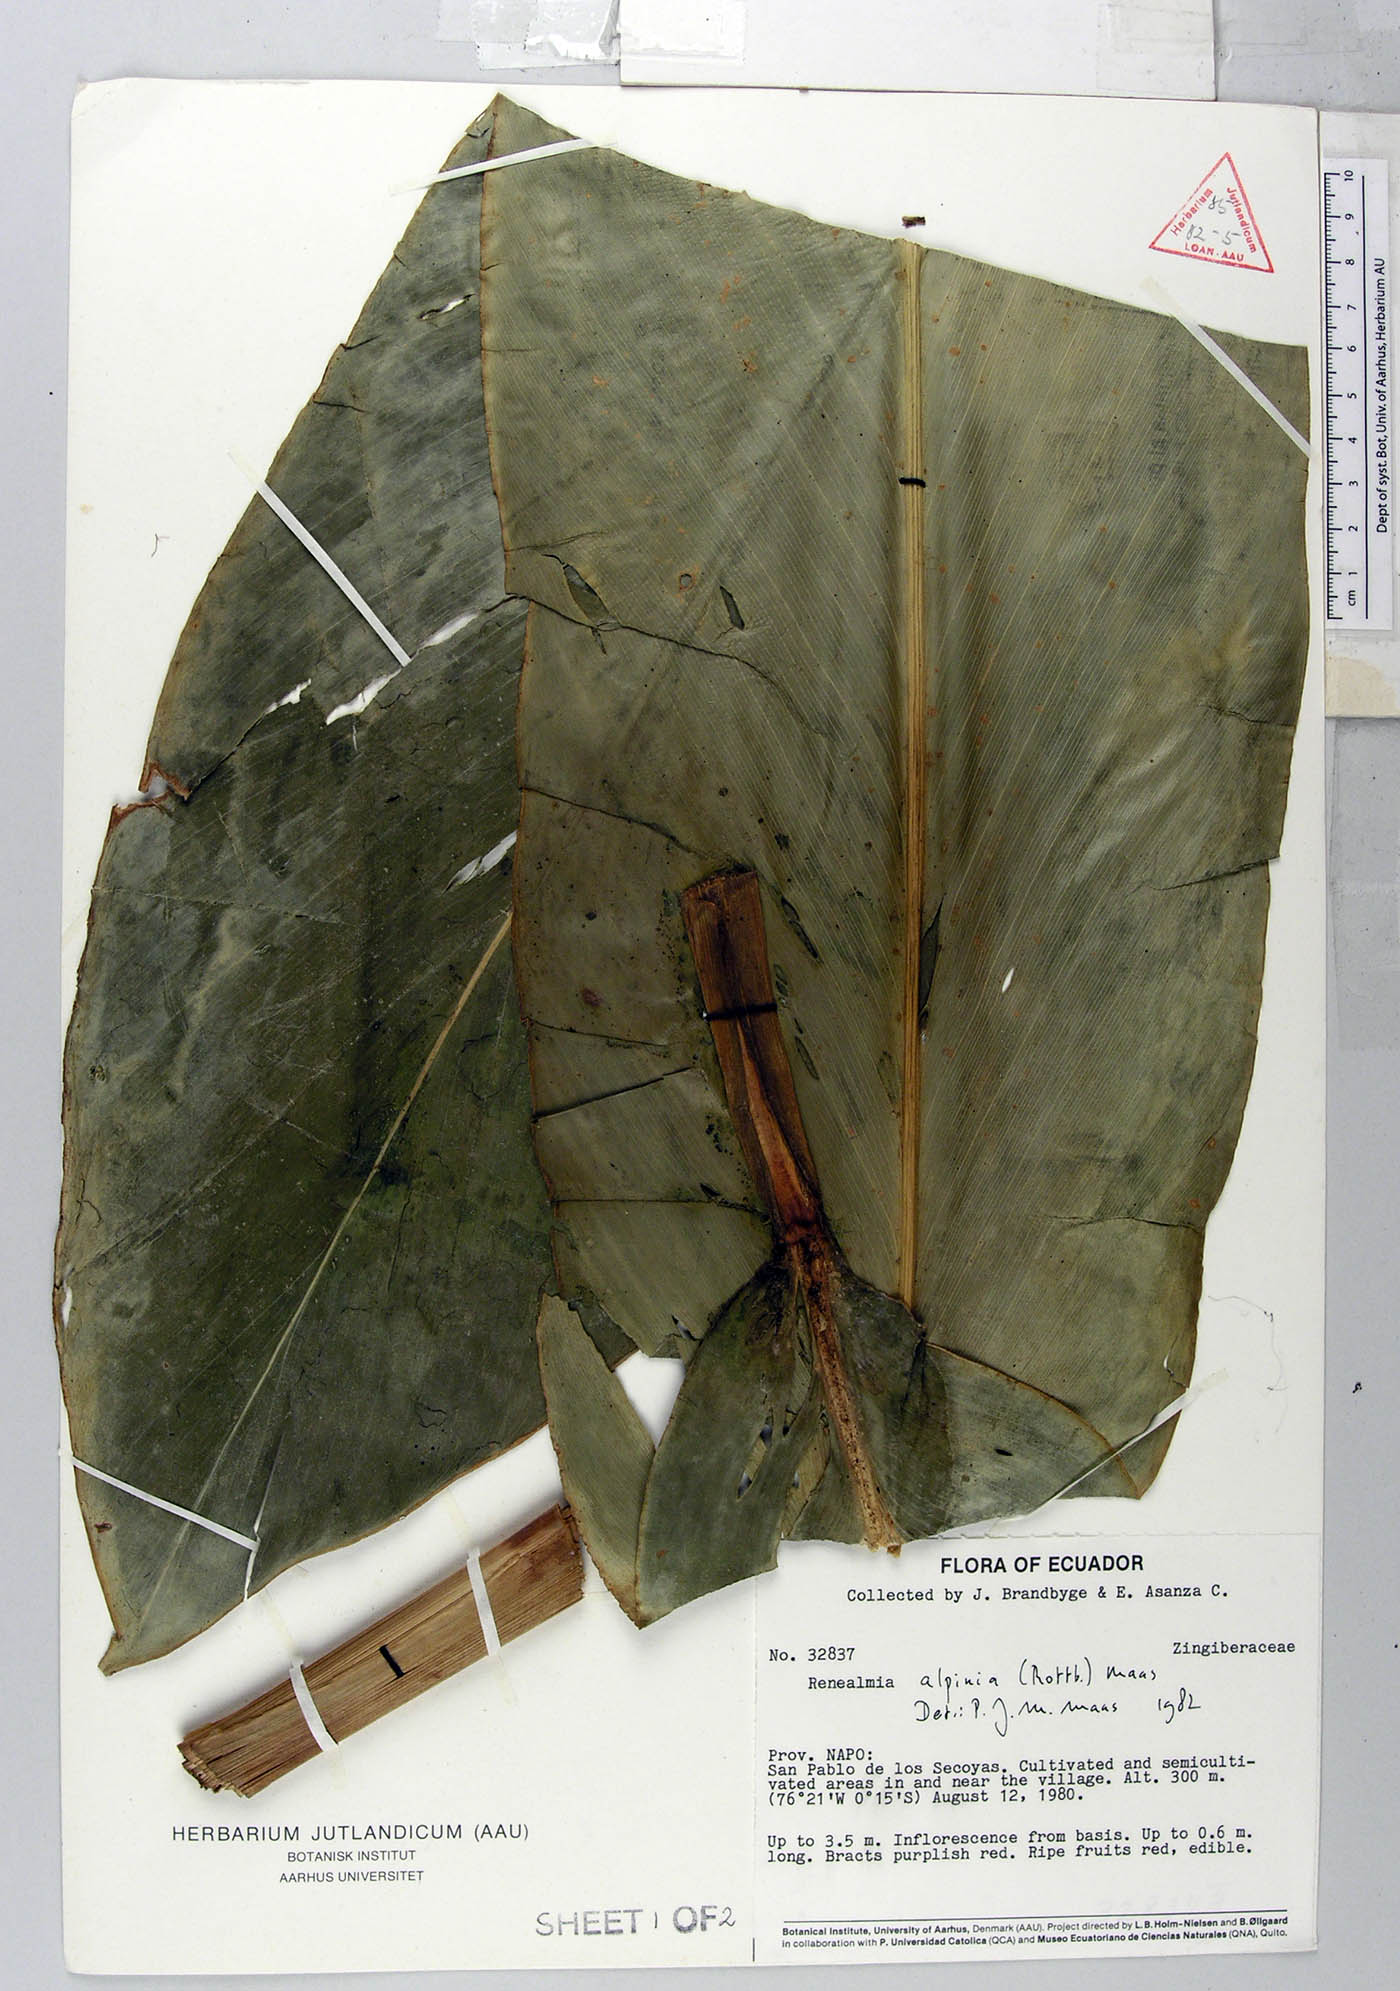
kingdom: Plantae
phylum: Tracheophyta
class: Liliopsida
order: Zingiberales
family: Zingiberaceae
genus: Renealmia
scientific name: Renealmia alpinia
